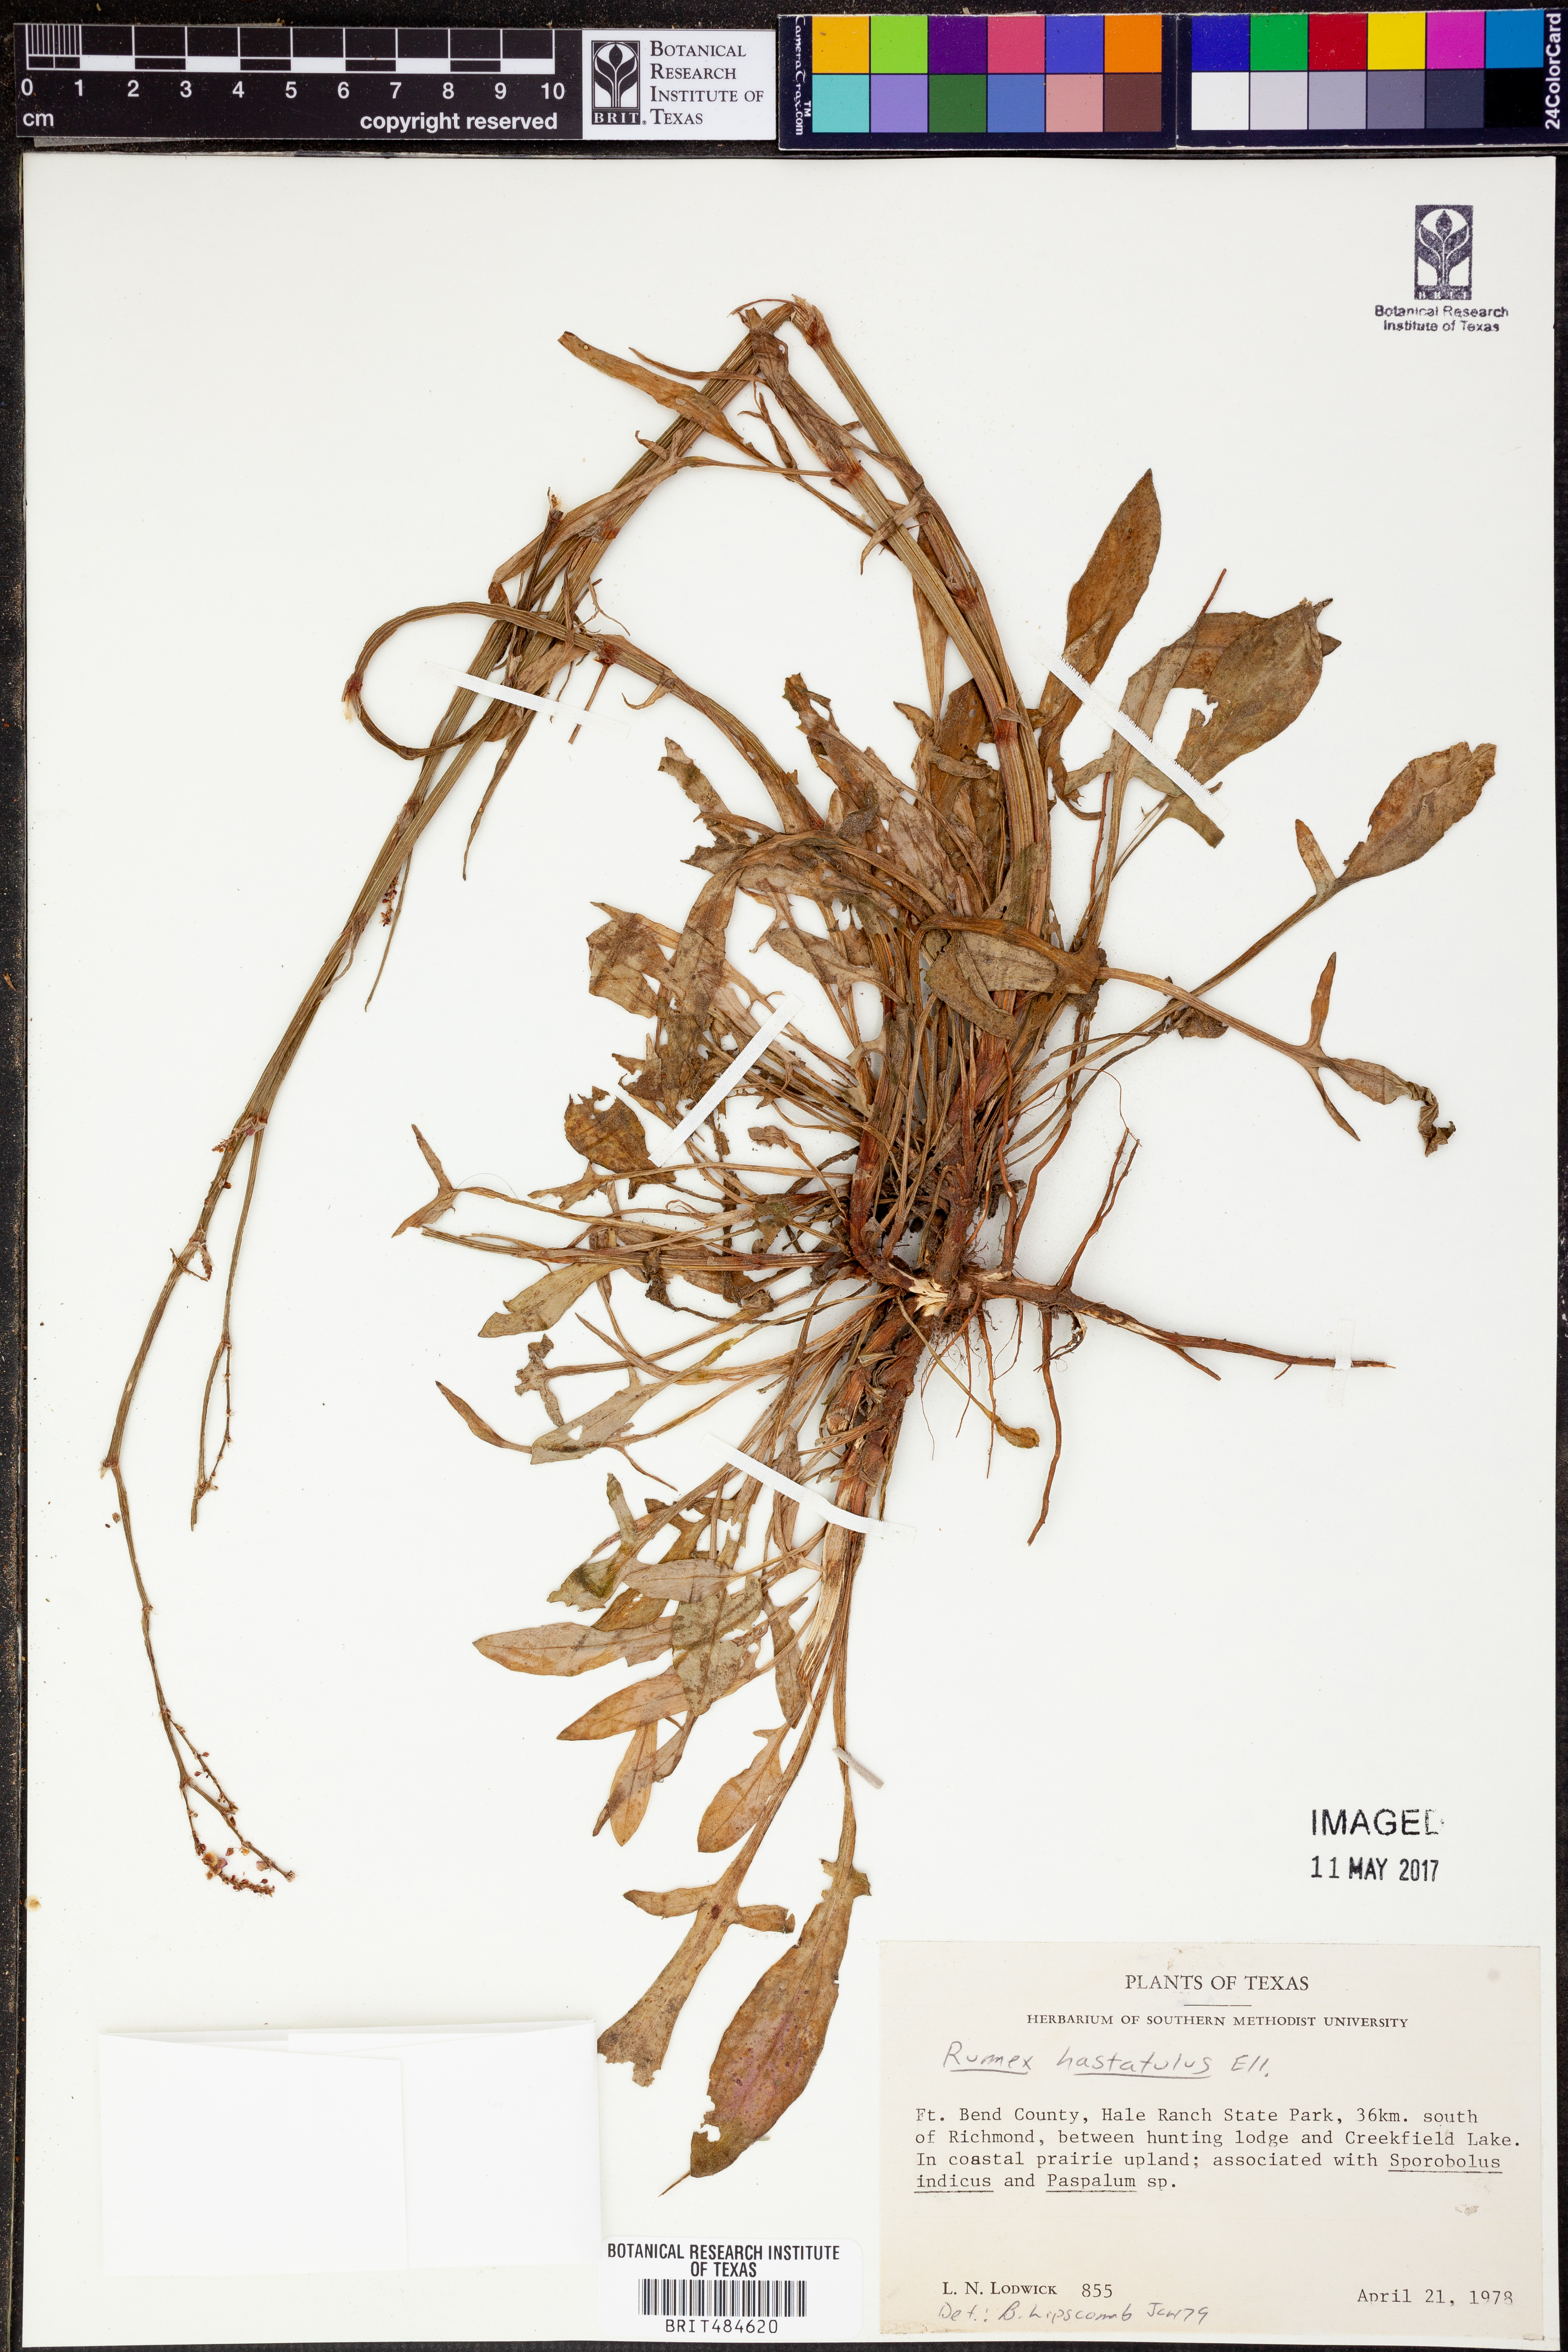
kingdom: Plantae
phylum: Tracheophyta
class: Magnoliopsida
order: Caryophyllales
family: Polygonaceae
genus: Rumex
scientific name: Rumex hastatulus
